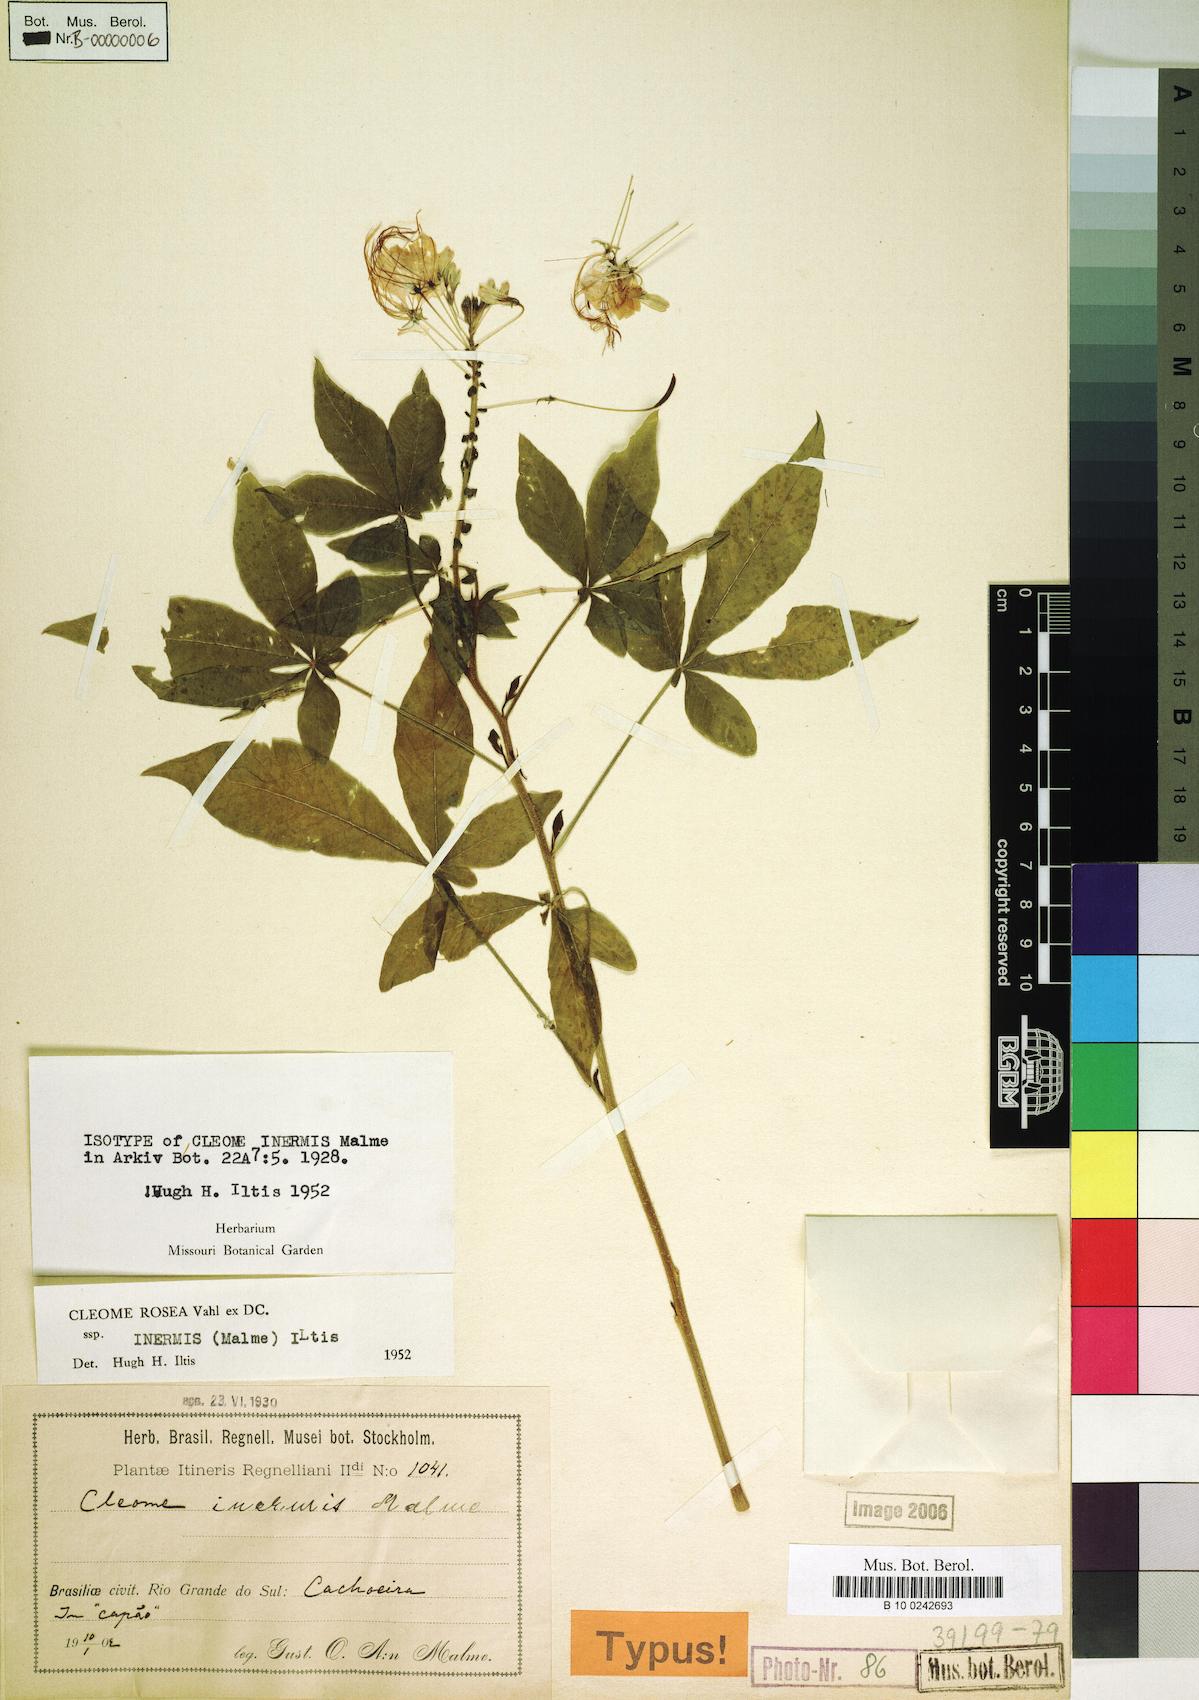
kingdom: Plantae
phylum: Tracheophyta
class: Magnoliopsida
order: Brassicales
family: Cleomaceae
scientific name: Cleomaceae
